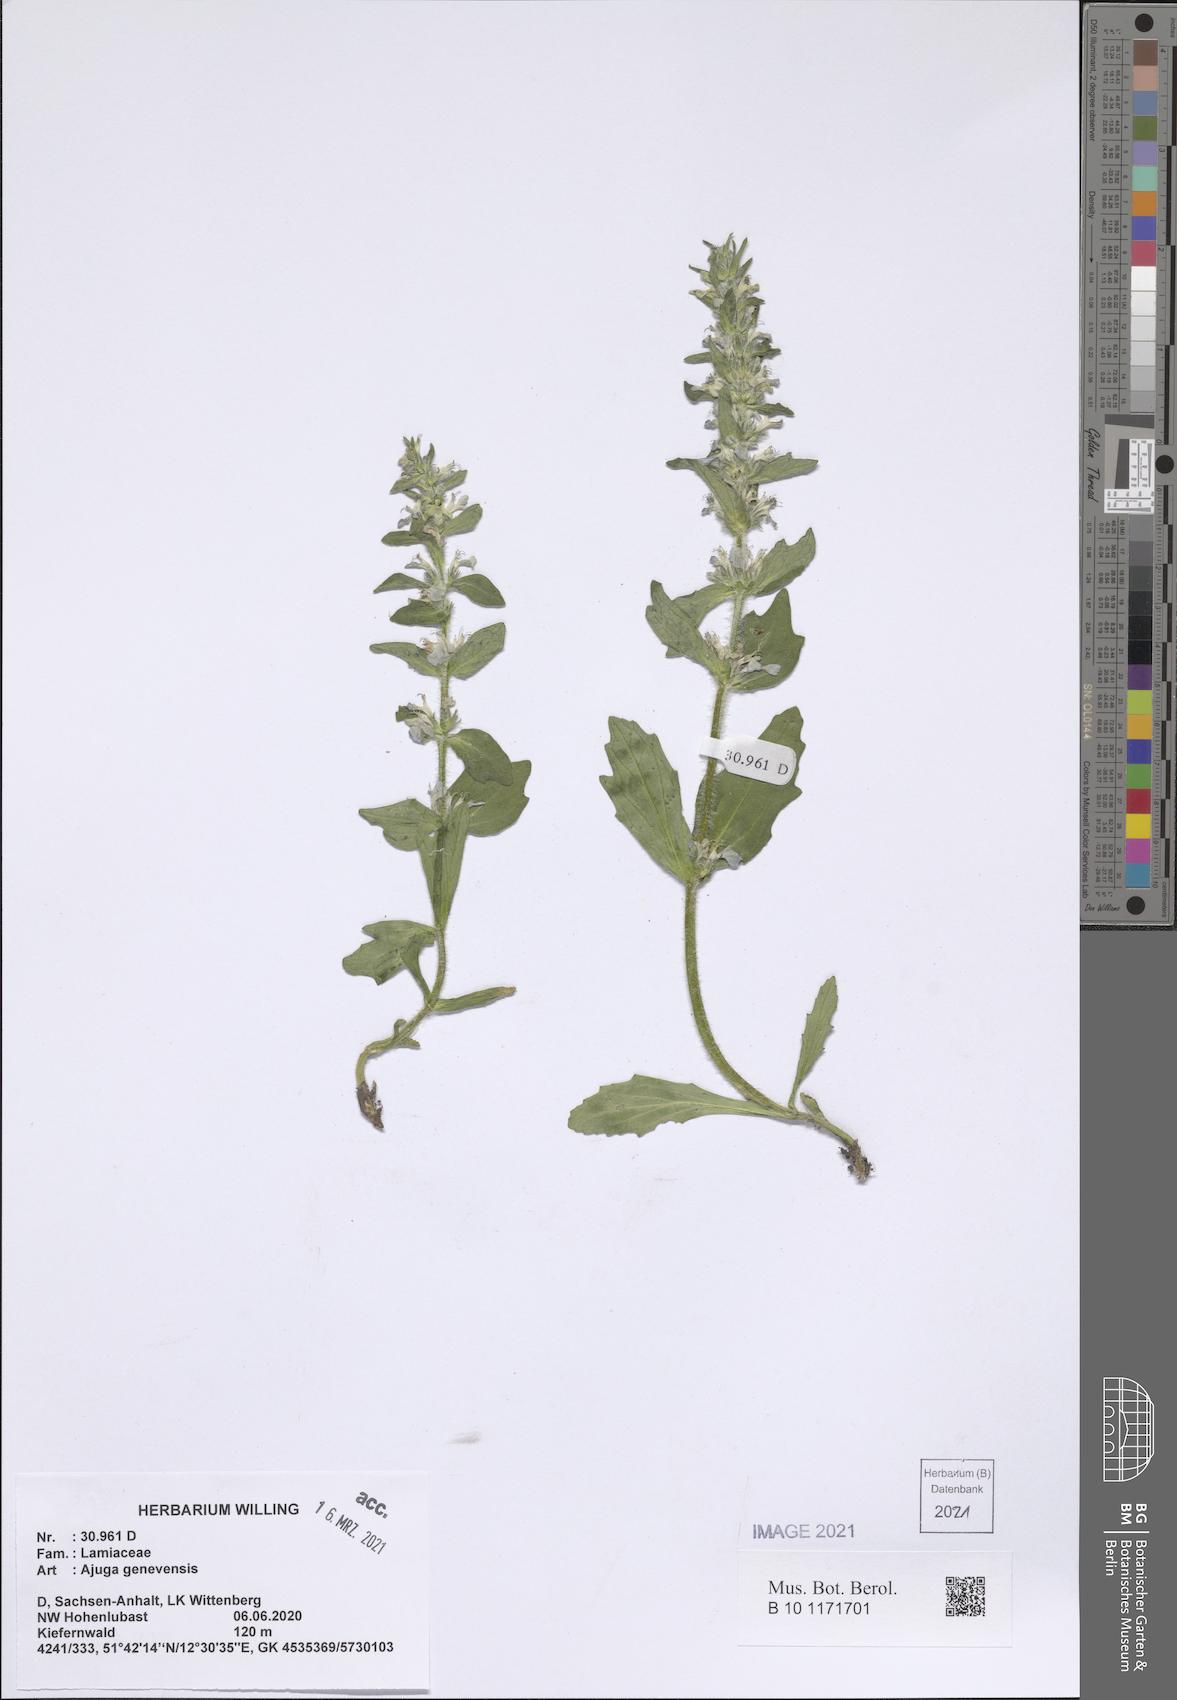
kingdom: Plantae
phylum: Tracheophyta
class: Magnoliopsida
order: Lamiales
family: Lamiaceae
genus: Ajuga
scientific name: Ajuga genevensis
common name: Blue bugle
